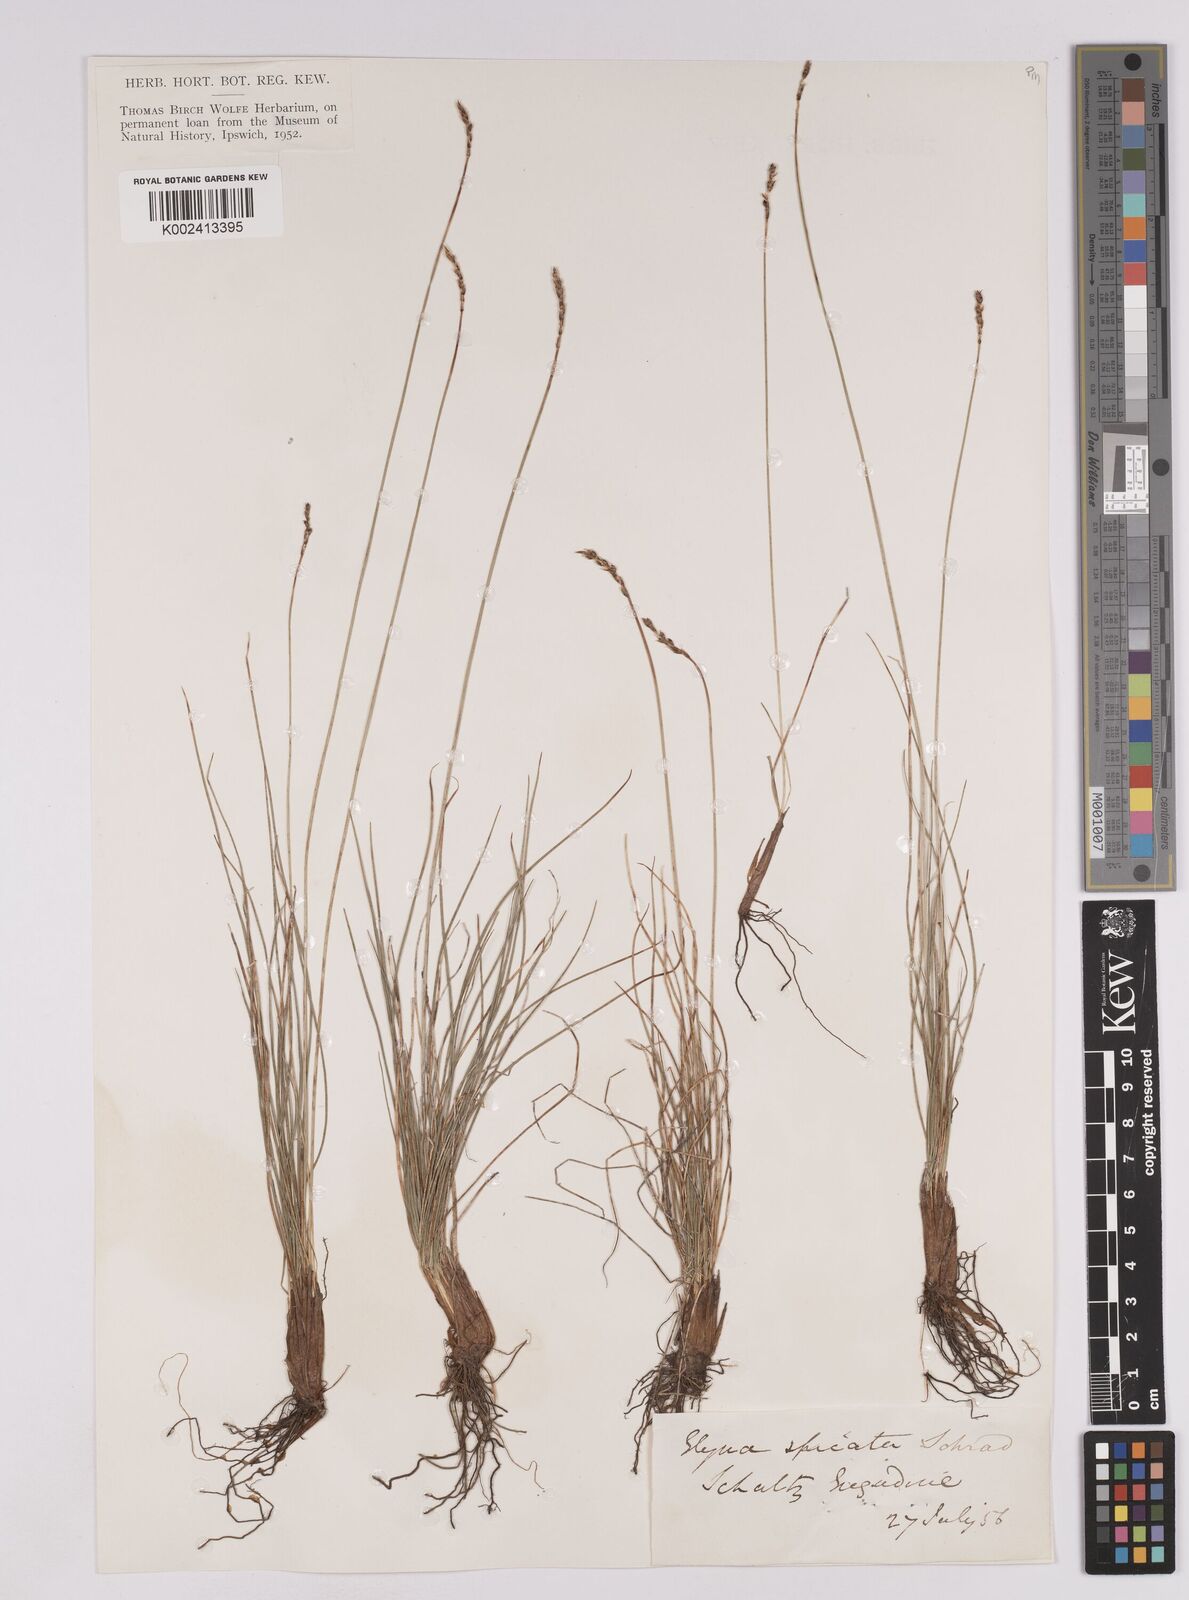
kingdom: Plantae
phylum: Tracheophyta
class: Liliopsida
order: Poales
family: Cyperaceae
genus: Carex
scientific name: Carex myosuroides
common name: Bellard's bog sedge
